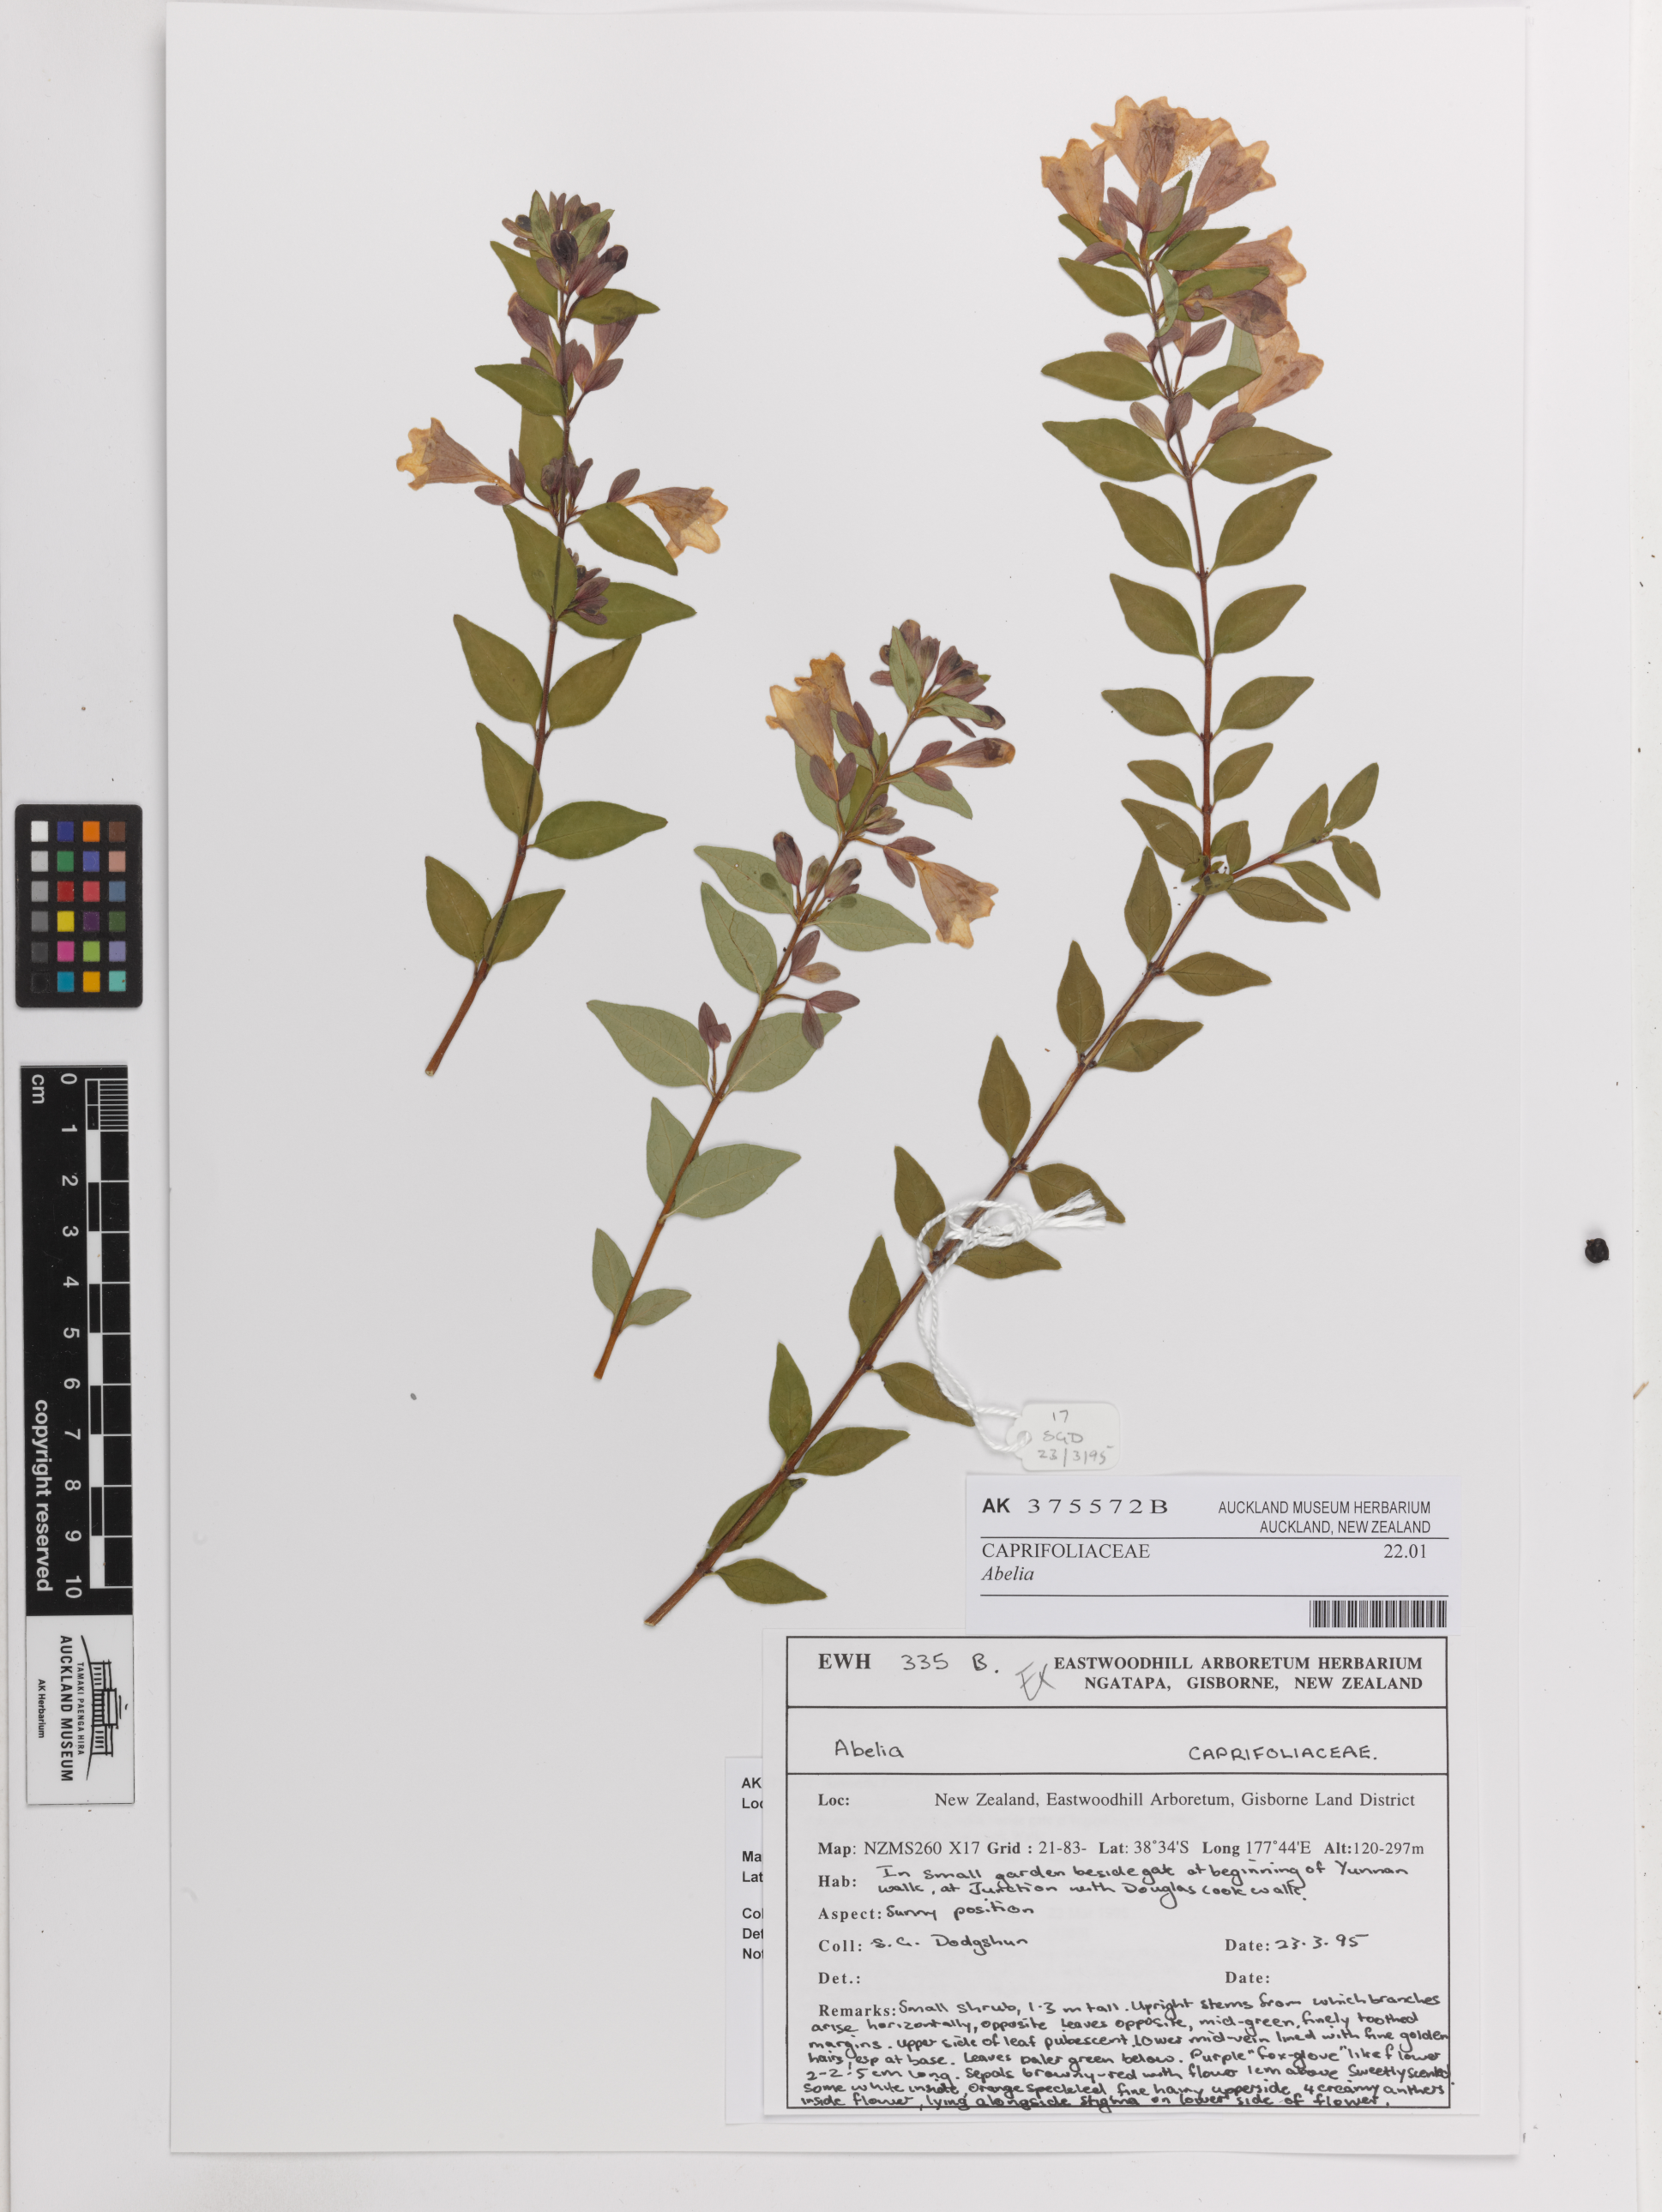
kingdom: Plantae
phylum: Tracheophyta
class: Magnoliopsida
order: Dipsacales
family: Caprifoliaceae
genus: Abelia
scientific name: Abelia
